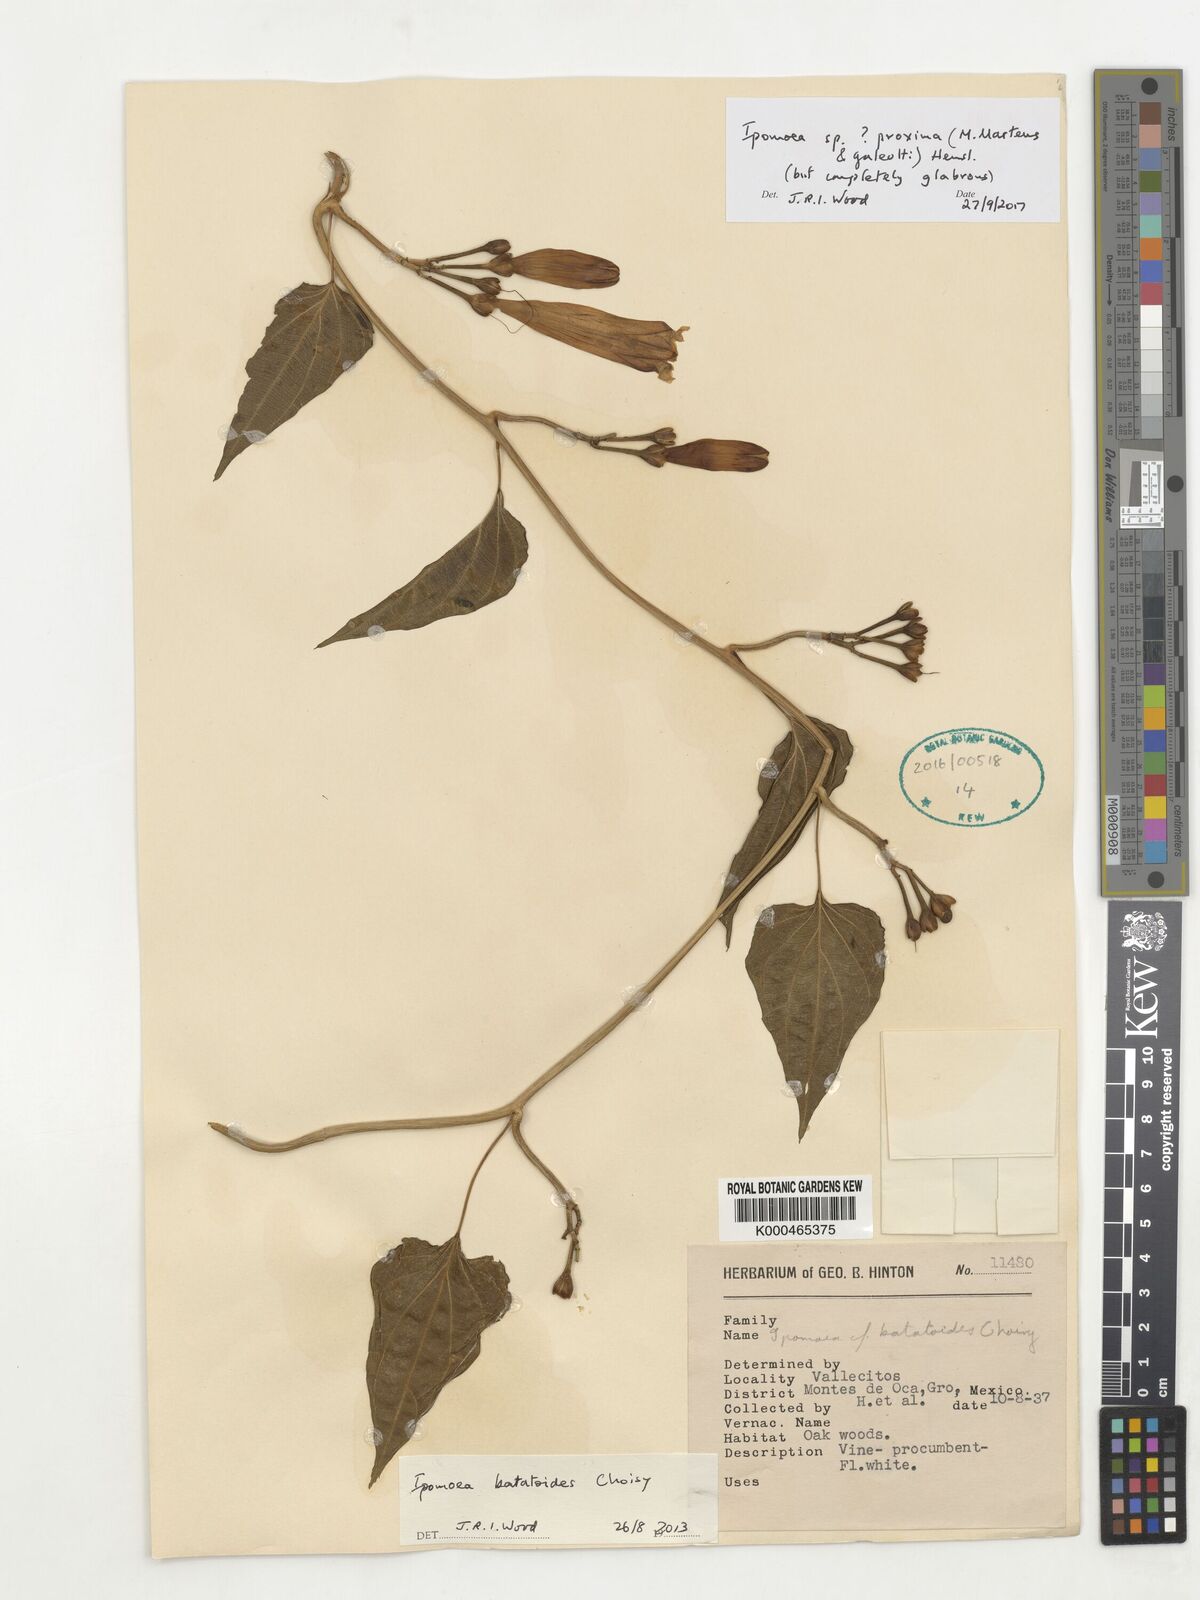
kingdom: Plantae
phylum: Tracheophyta
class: Magnoliopsida
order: Solanales
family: Convolvulaceae
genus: Ipomoea
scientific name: Ipomoea proxima
